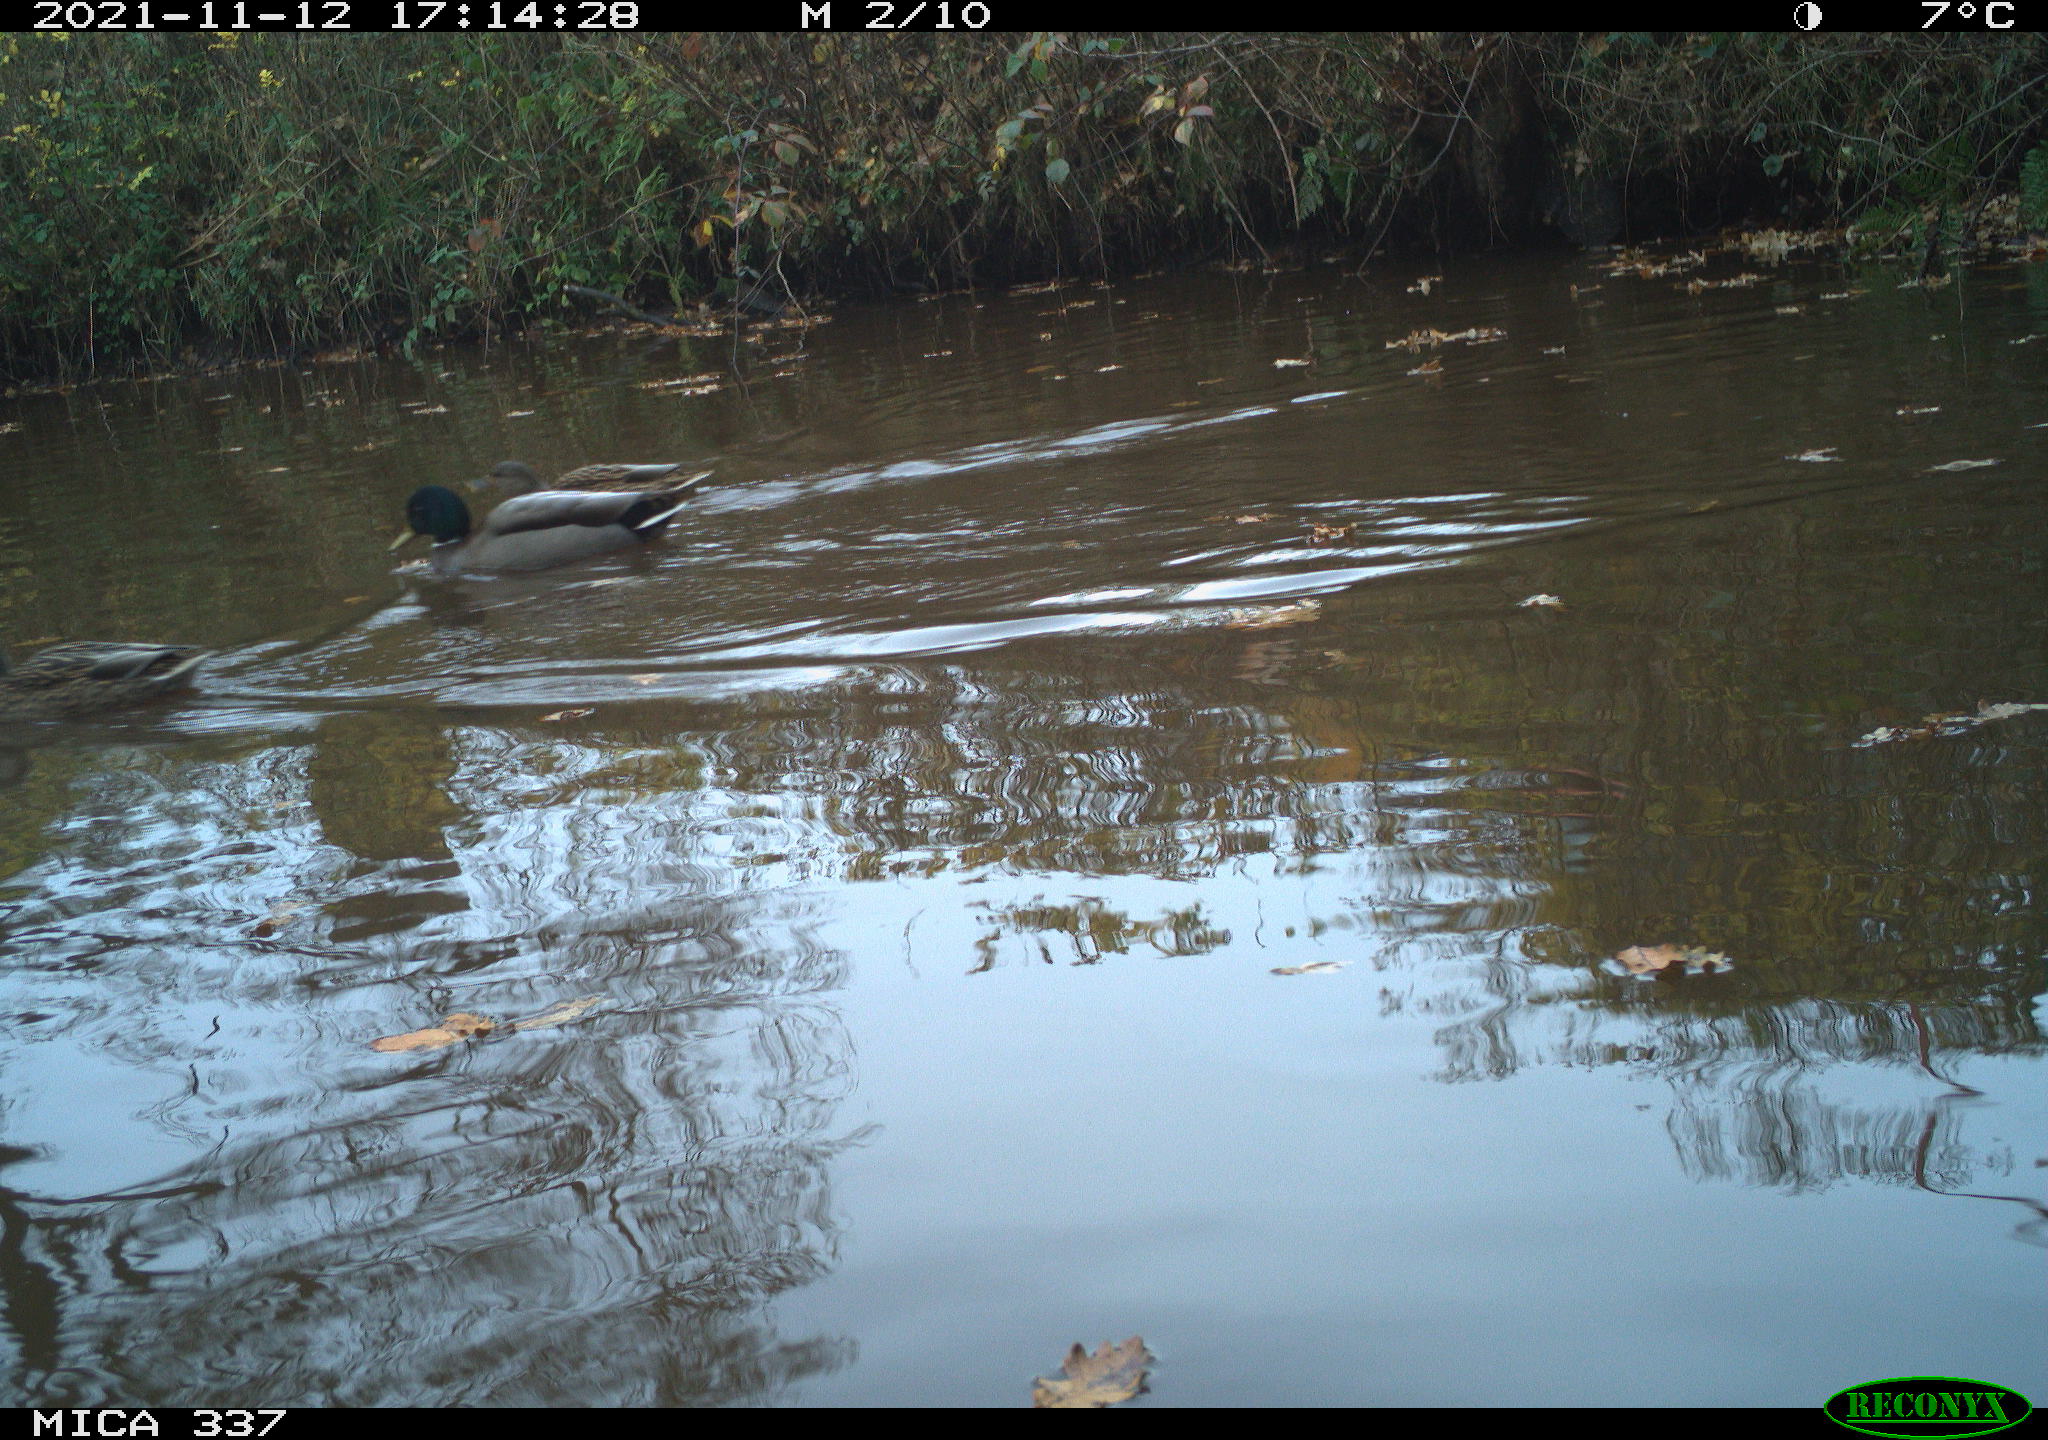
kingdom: Animalia
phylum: Chordata
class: Aves
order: Anseriformes
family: Anatidae
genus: Anas
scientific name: Anas platyrhynchos
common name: Mallard
